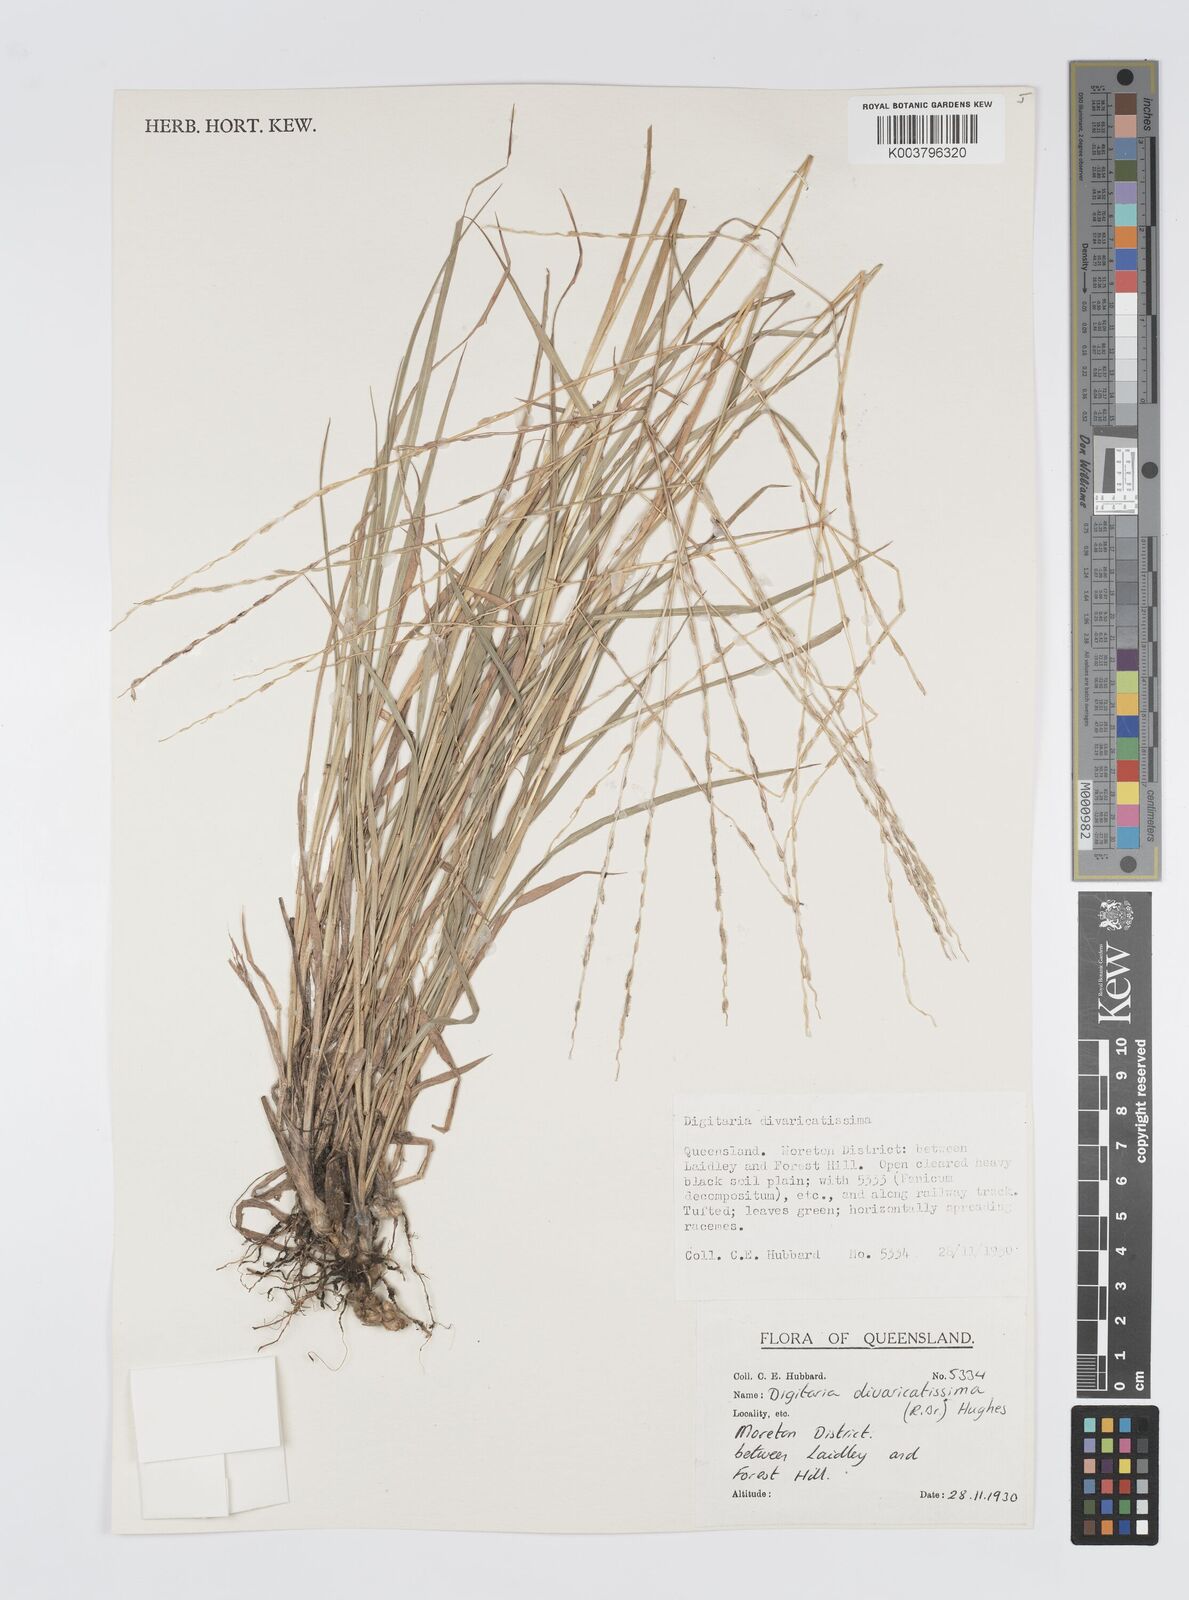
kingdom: Plantae
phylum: Tracheophyta
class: Liliopsida
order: Poales
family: Poaceae
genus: Digitaria
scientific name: Digitaria divaricatissima
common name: Crabgrass
